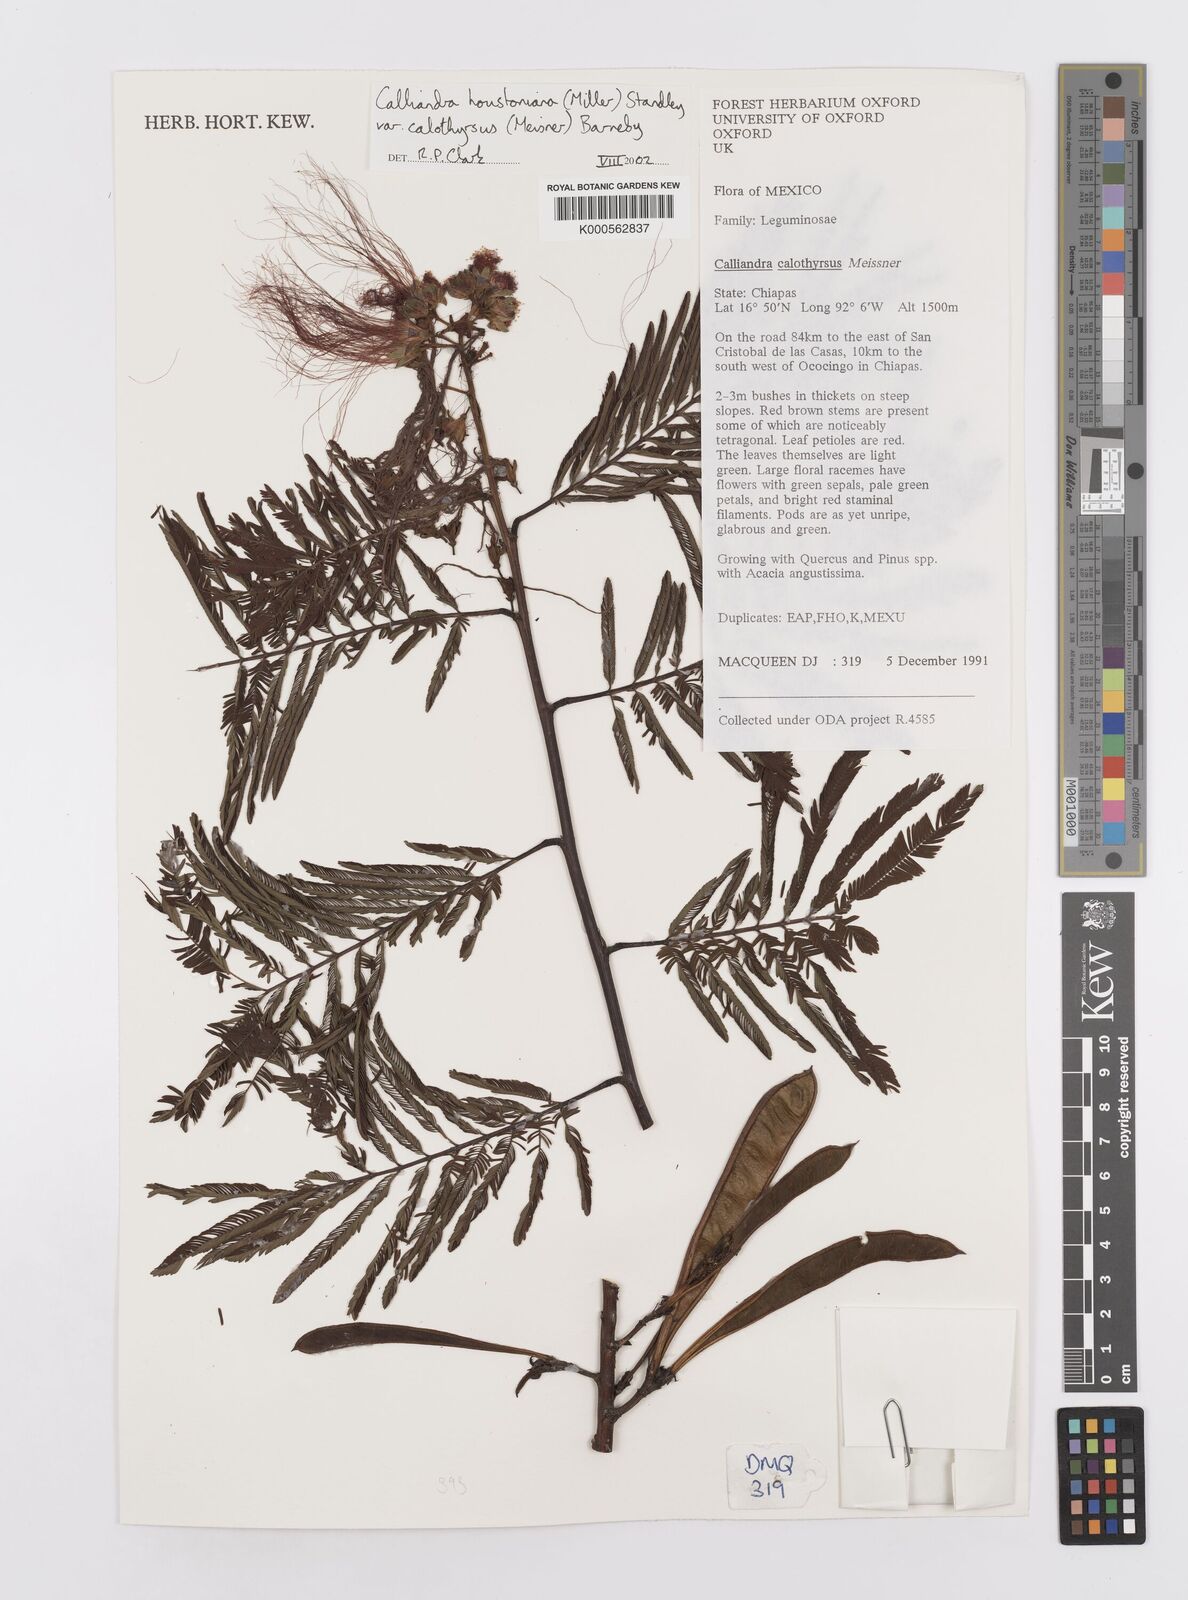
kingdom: Plantae
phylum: Tracheophyta
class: Magnoliopsida
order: Fabales
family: Fabaceae
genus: Calliandra
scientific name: Calliandra houstoniana
